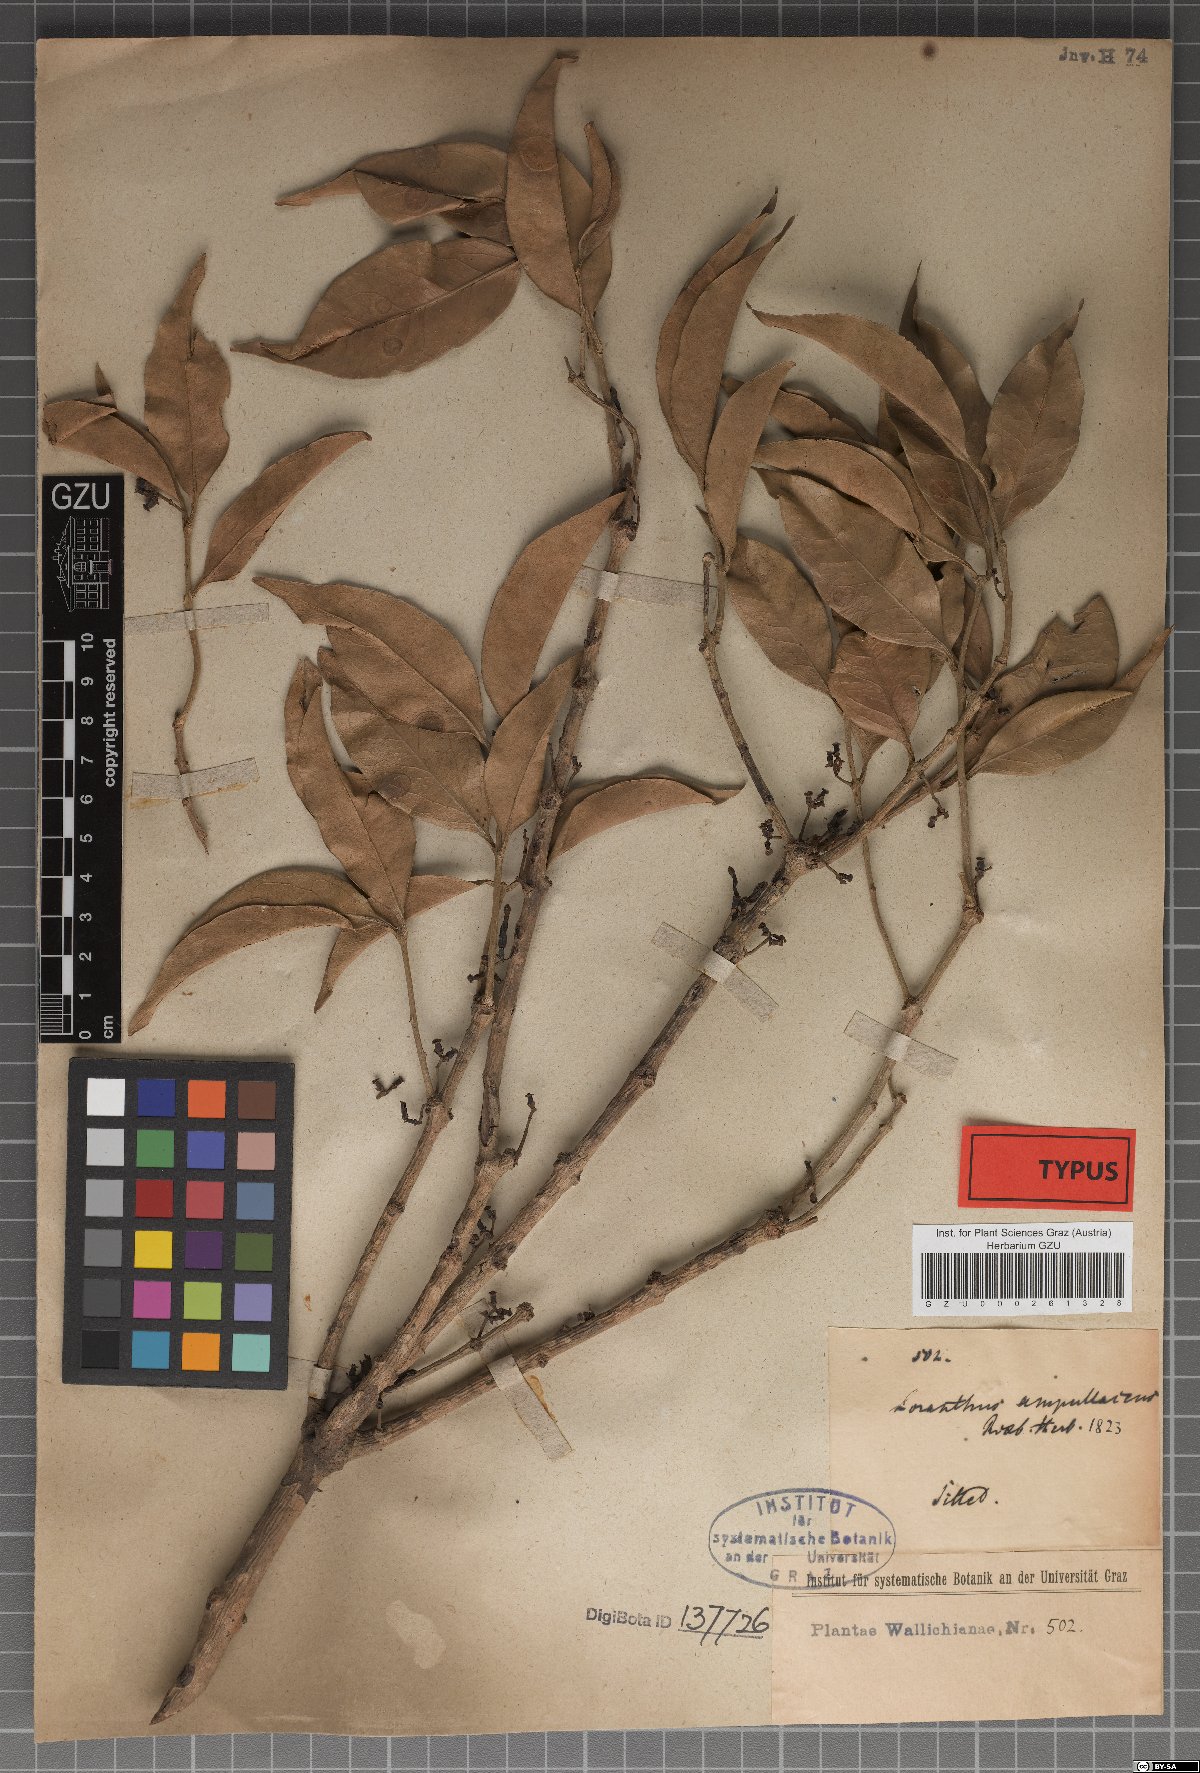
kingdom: Plantae
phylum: Tracheophyta
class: Magnoliopsida
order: Santalales
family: Loranthaceae
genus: Macrosolen
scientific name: Macrosolen cochinchinensis
